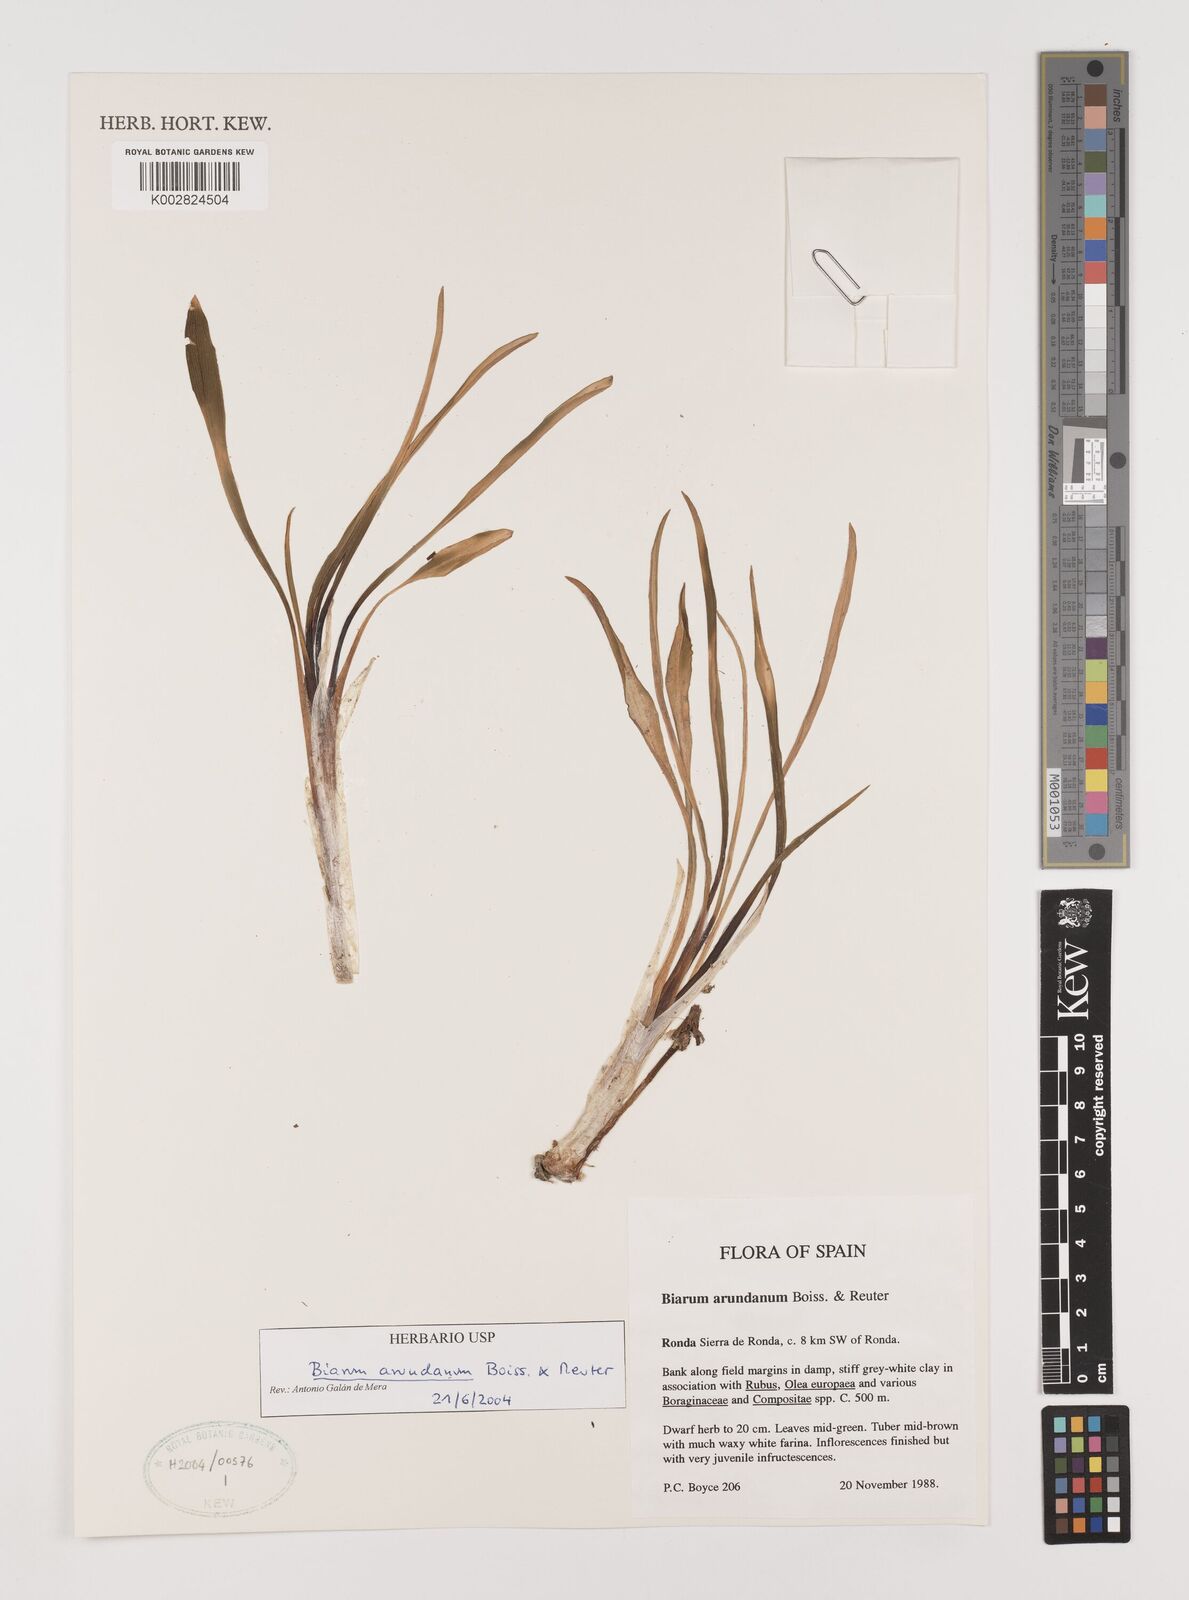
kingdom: Plantae
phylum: Tracheophyta
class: Liliopsida
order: Alismatales
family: Araceae
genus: Biarum
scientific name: Biarum tenuifolium
